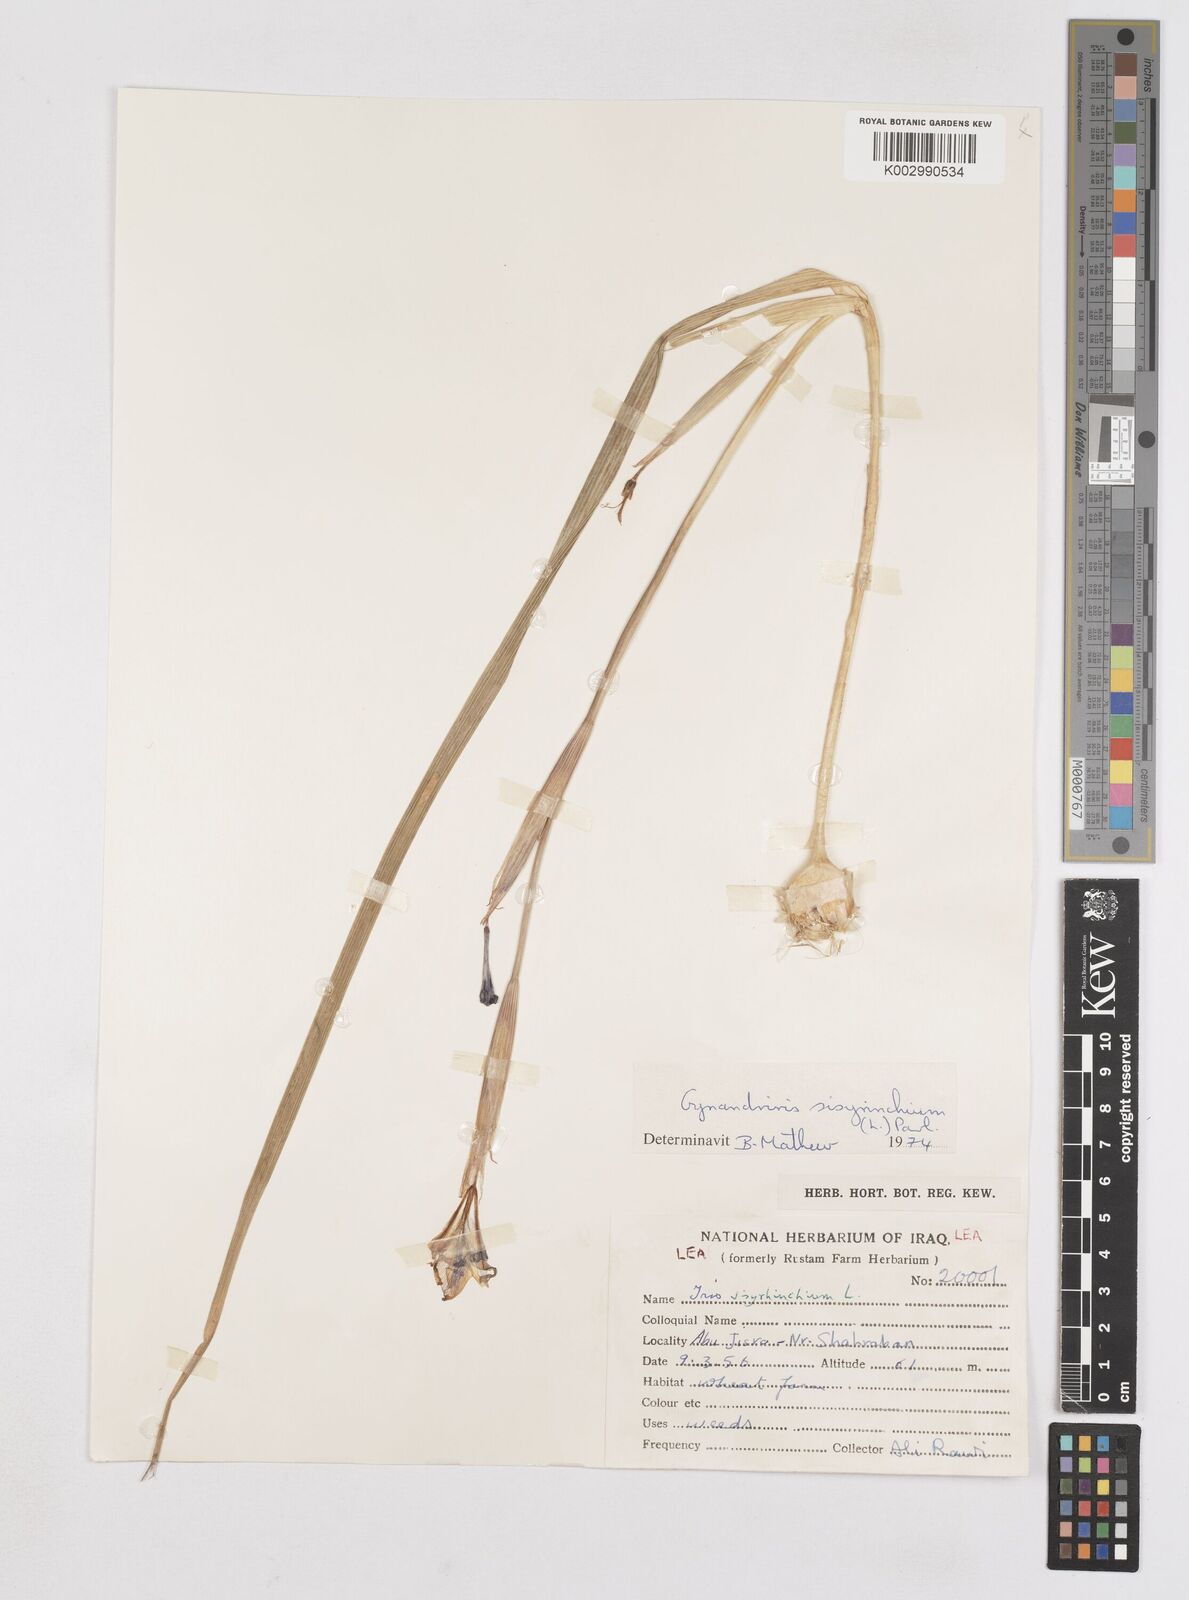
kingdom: Plantae
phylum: Tracheophyta
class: Liliopsida
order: Asparagales
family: Iridaceae
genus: Moraea
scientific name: Moraea sisyrinchium
